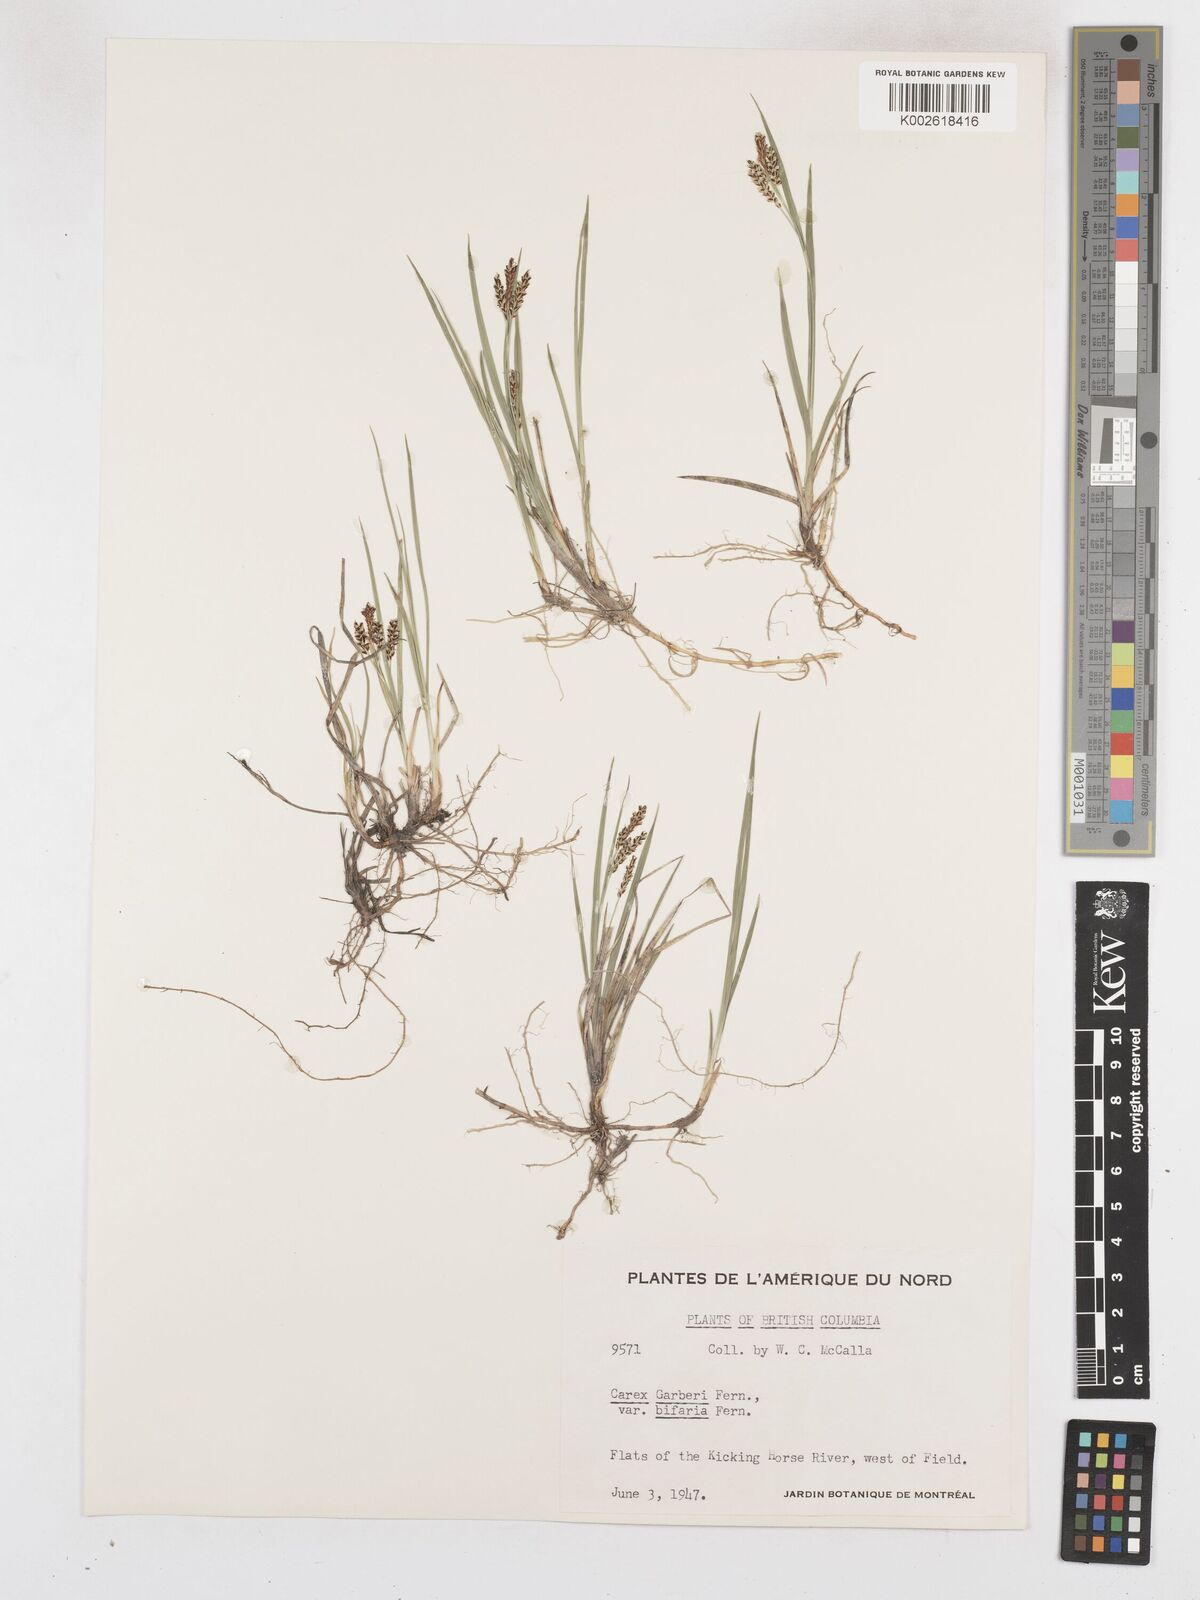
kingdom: Plantae
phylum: Tracheophyta
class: Liliopsida
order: Poales
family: Cyperaceae
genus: Carex
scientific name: Carex garberi
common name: Elk sedge
